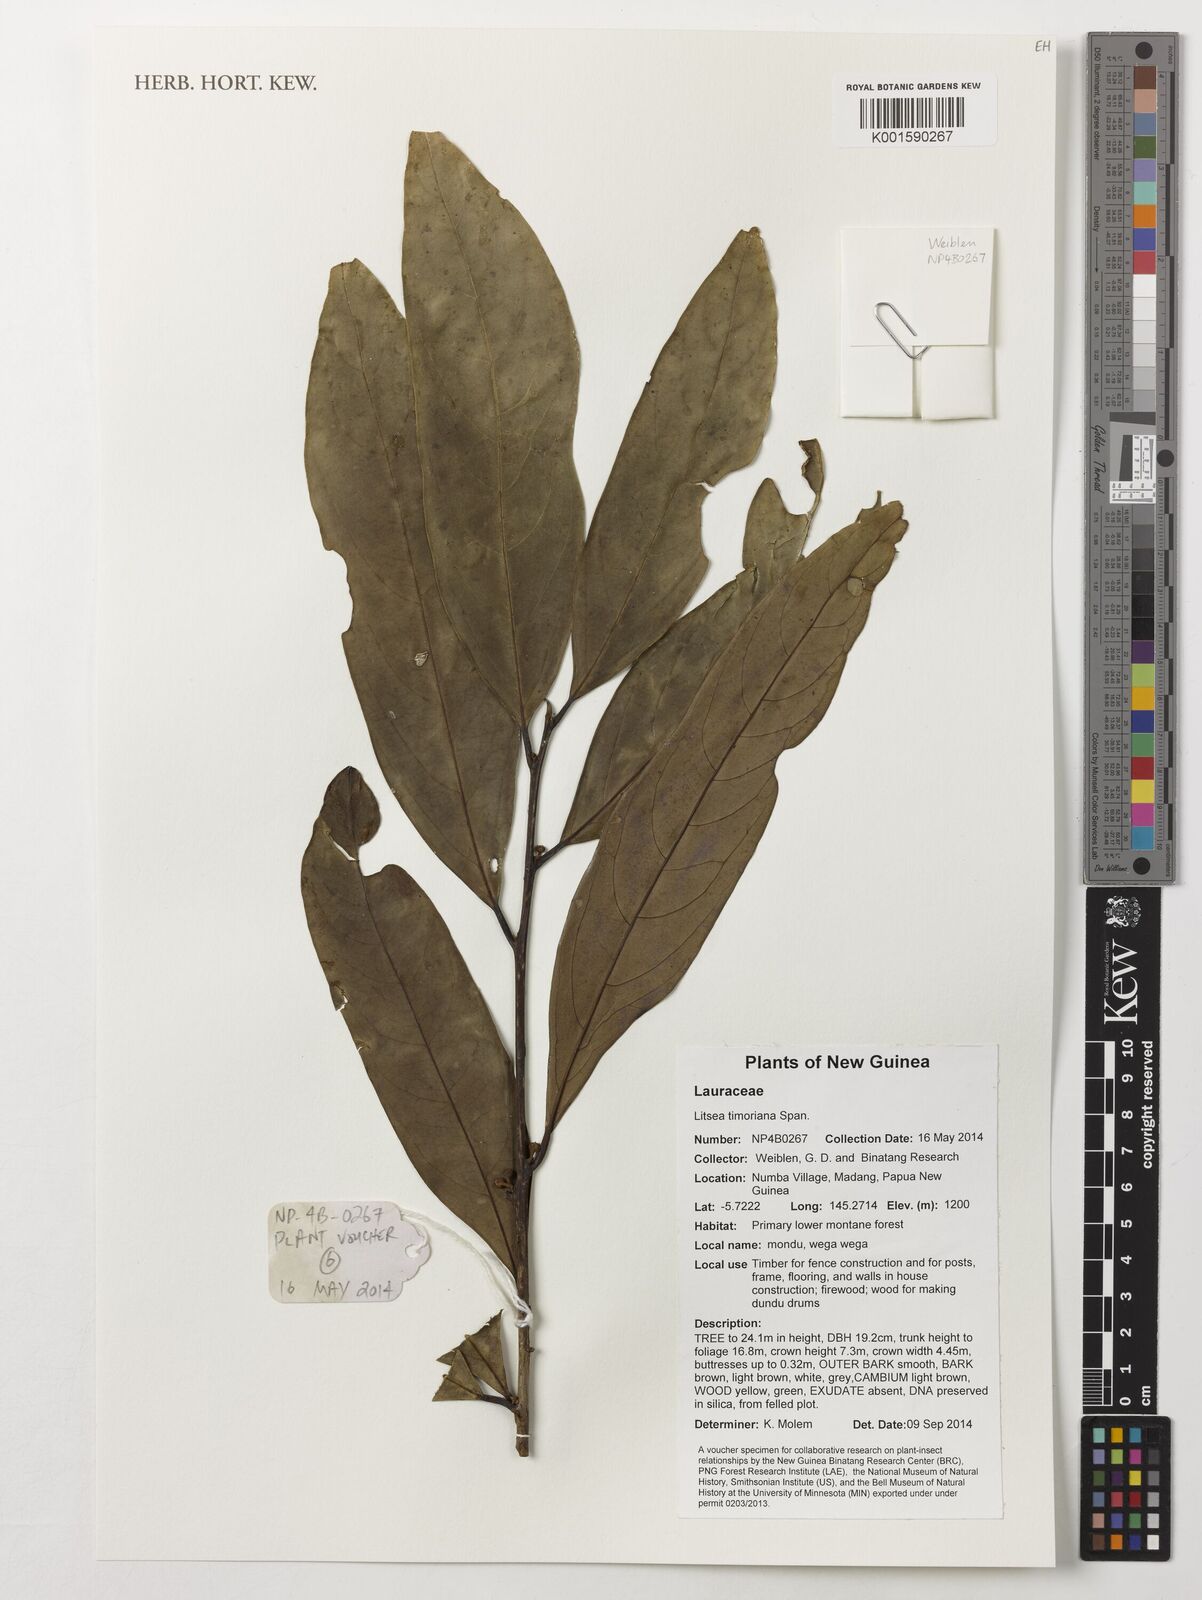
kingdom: Plantae
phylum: Tracheophyta
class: Magnoliopsida
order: Laurales
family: Lauraceae
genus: Litsea
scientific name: Litsea timoriana
